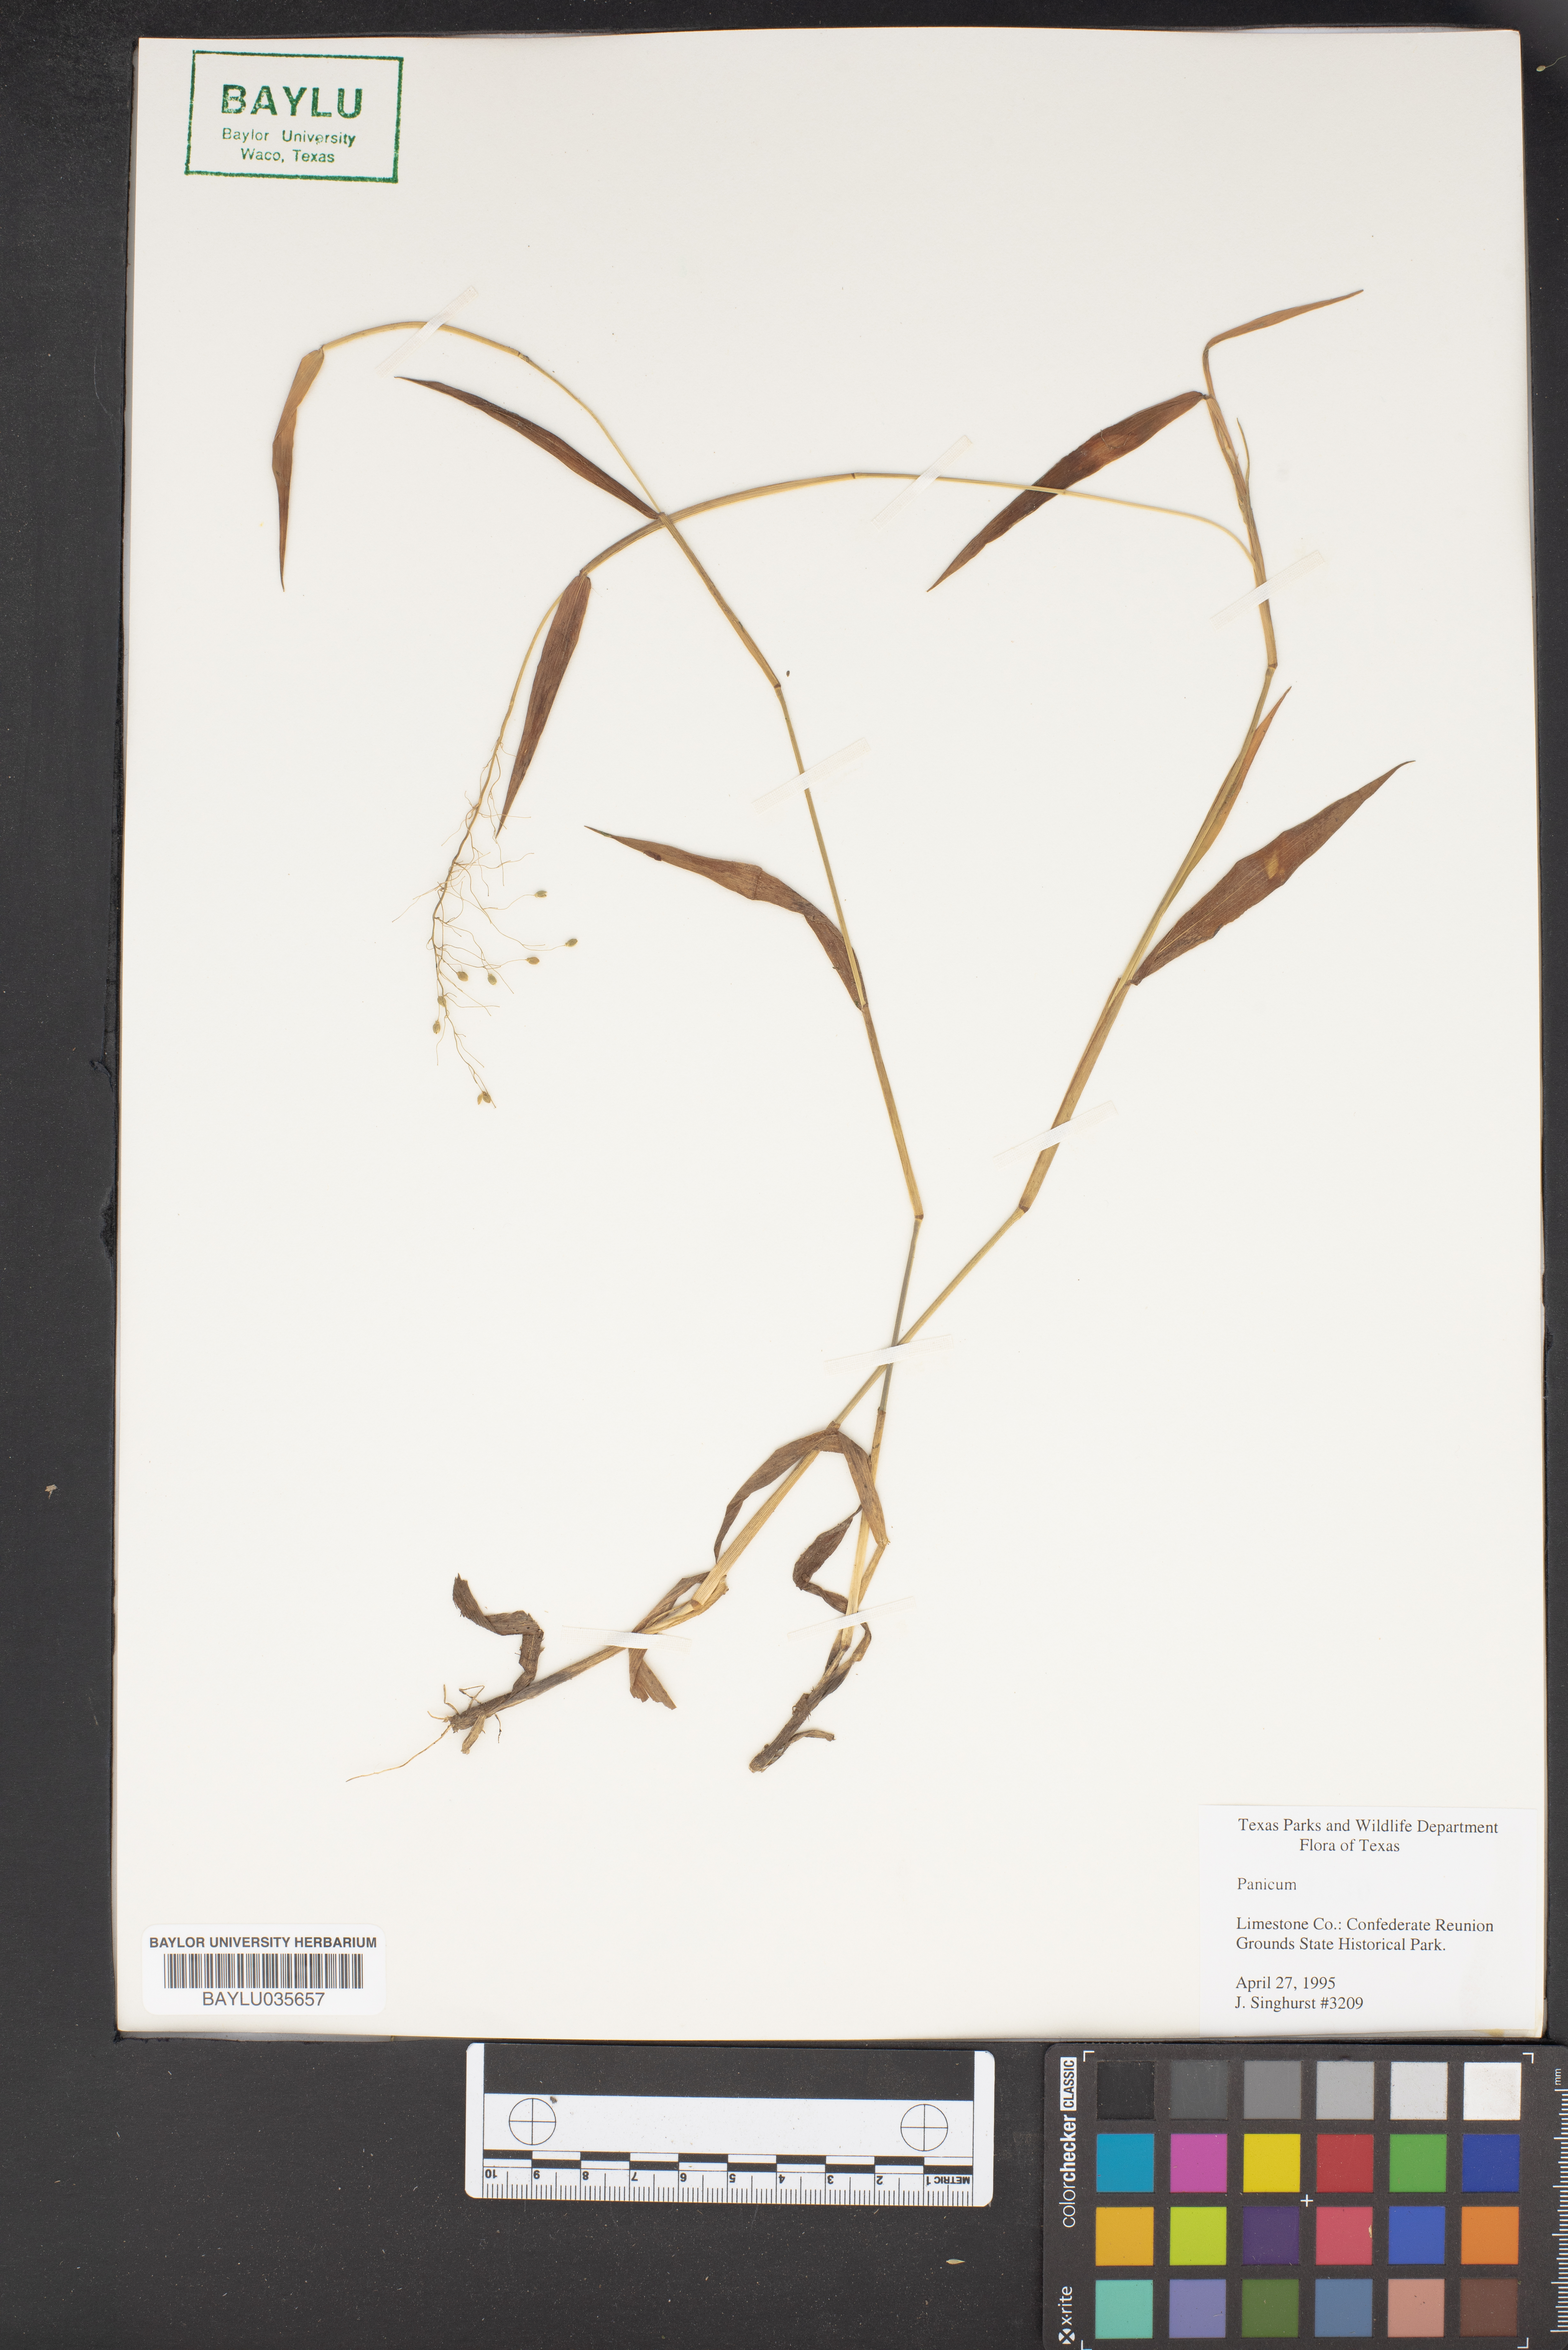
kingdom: Plantae
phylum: Tracheophyta
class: Liliopsida
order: Poales
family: Poaceae
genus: Panicum
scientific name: Panicum
